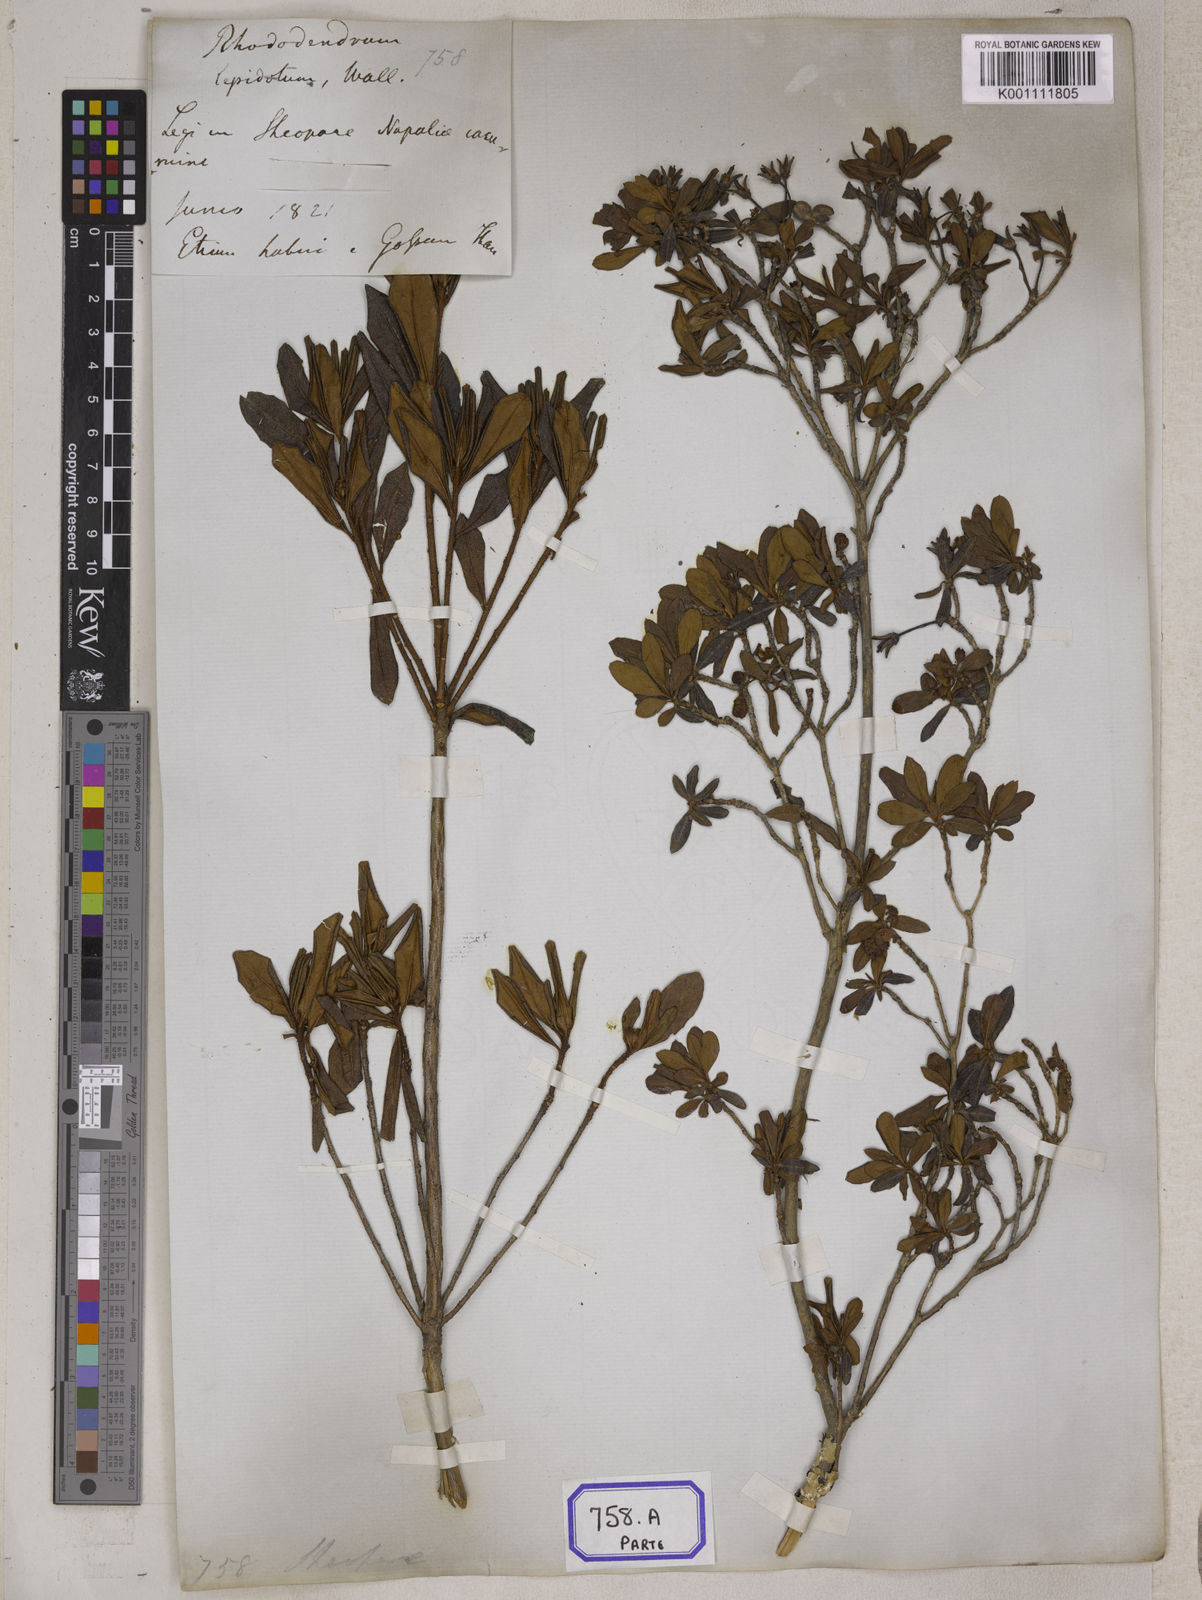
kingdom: Plantae
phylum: Tracheophyta
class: Magnoliopsida
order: Ericales
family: Ericaceae
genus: Rhododendron
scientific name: Rhododendron
